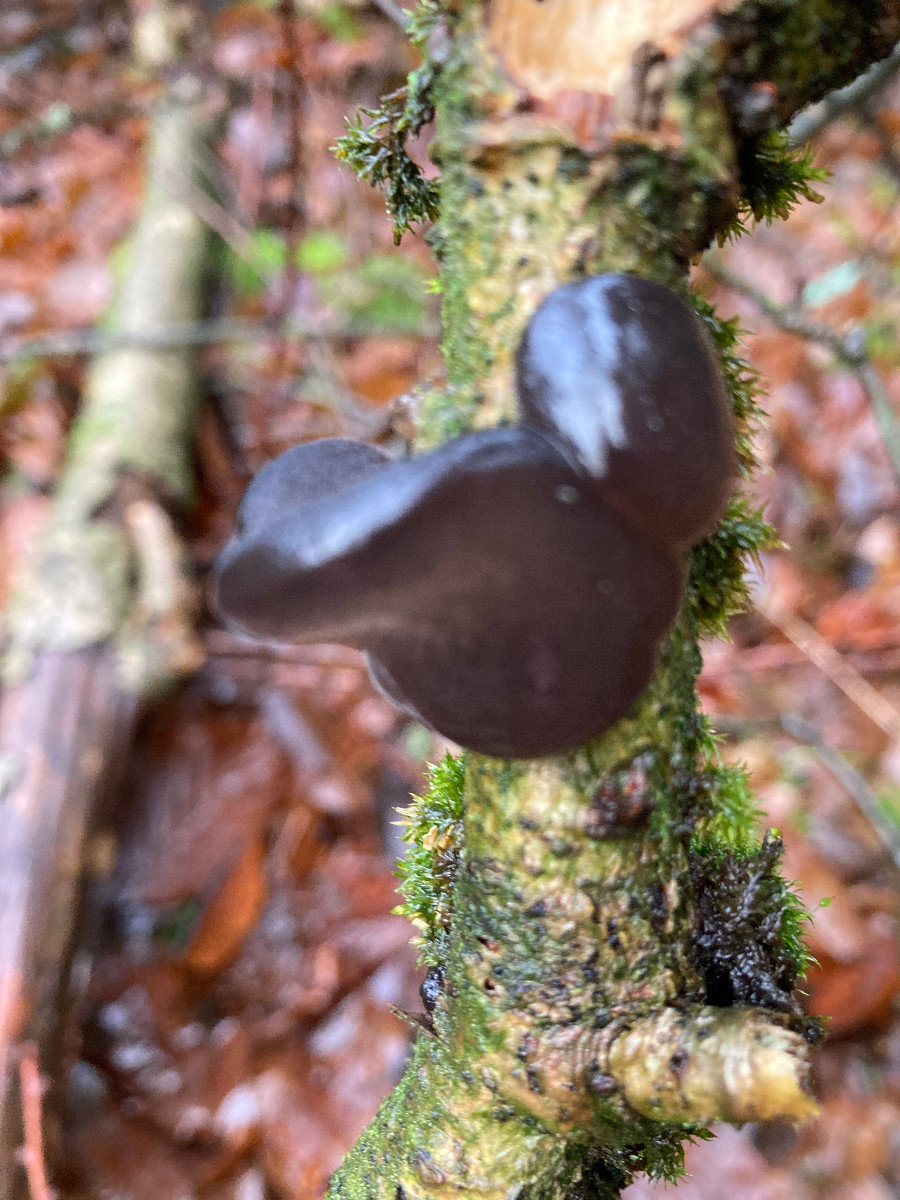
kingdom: Fungi
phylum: Basidiomycota
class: Agaricomycetes
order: Auriculariales
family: Auriculariaceae
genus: Exidia
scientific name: Exidia glandulosa
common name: ege-bævretop
